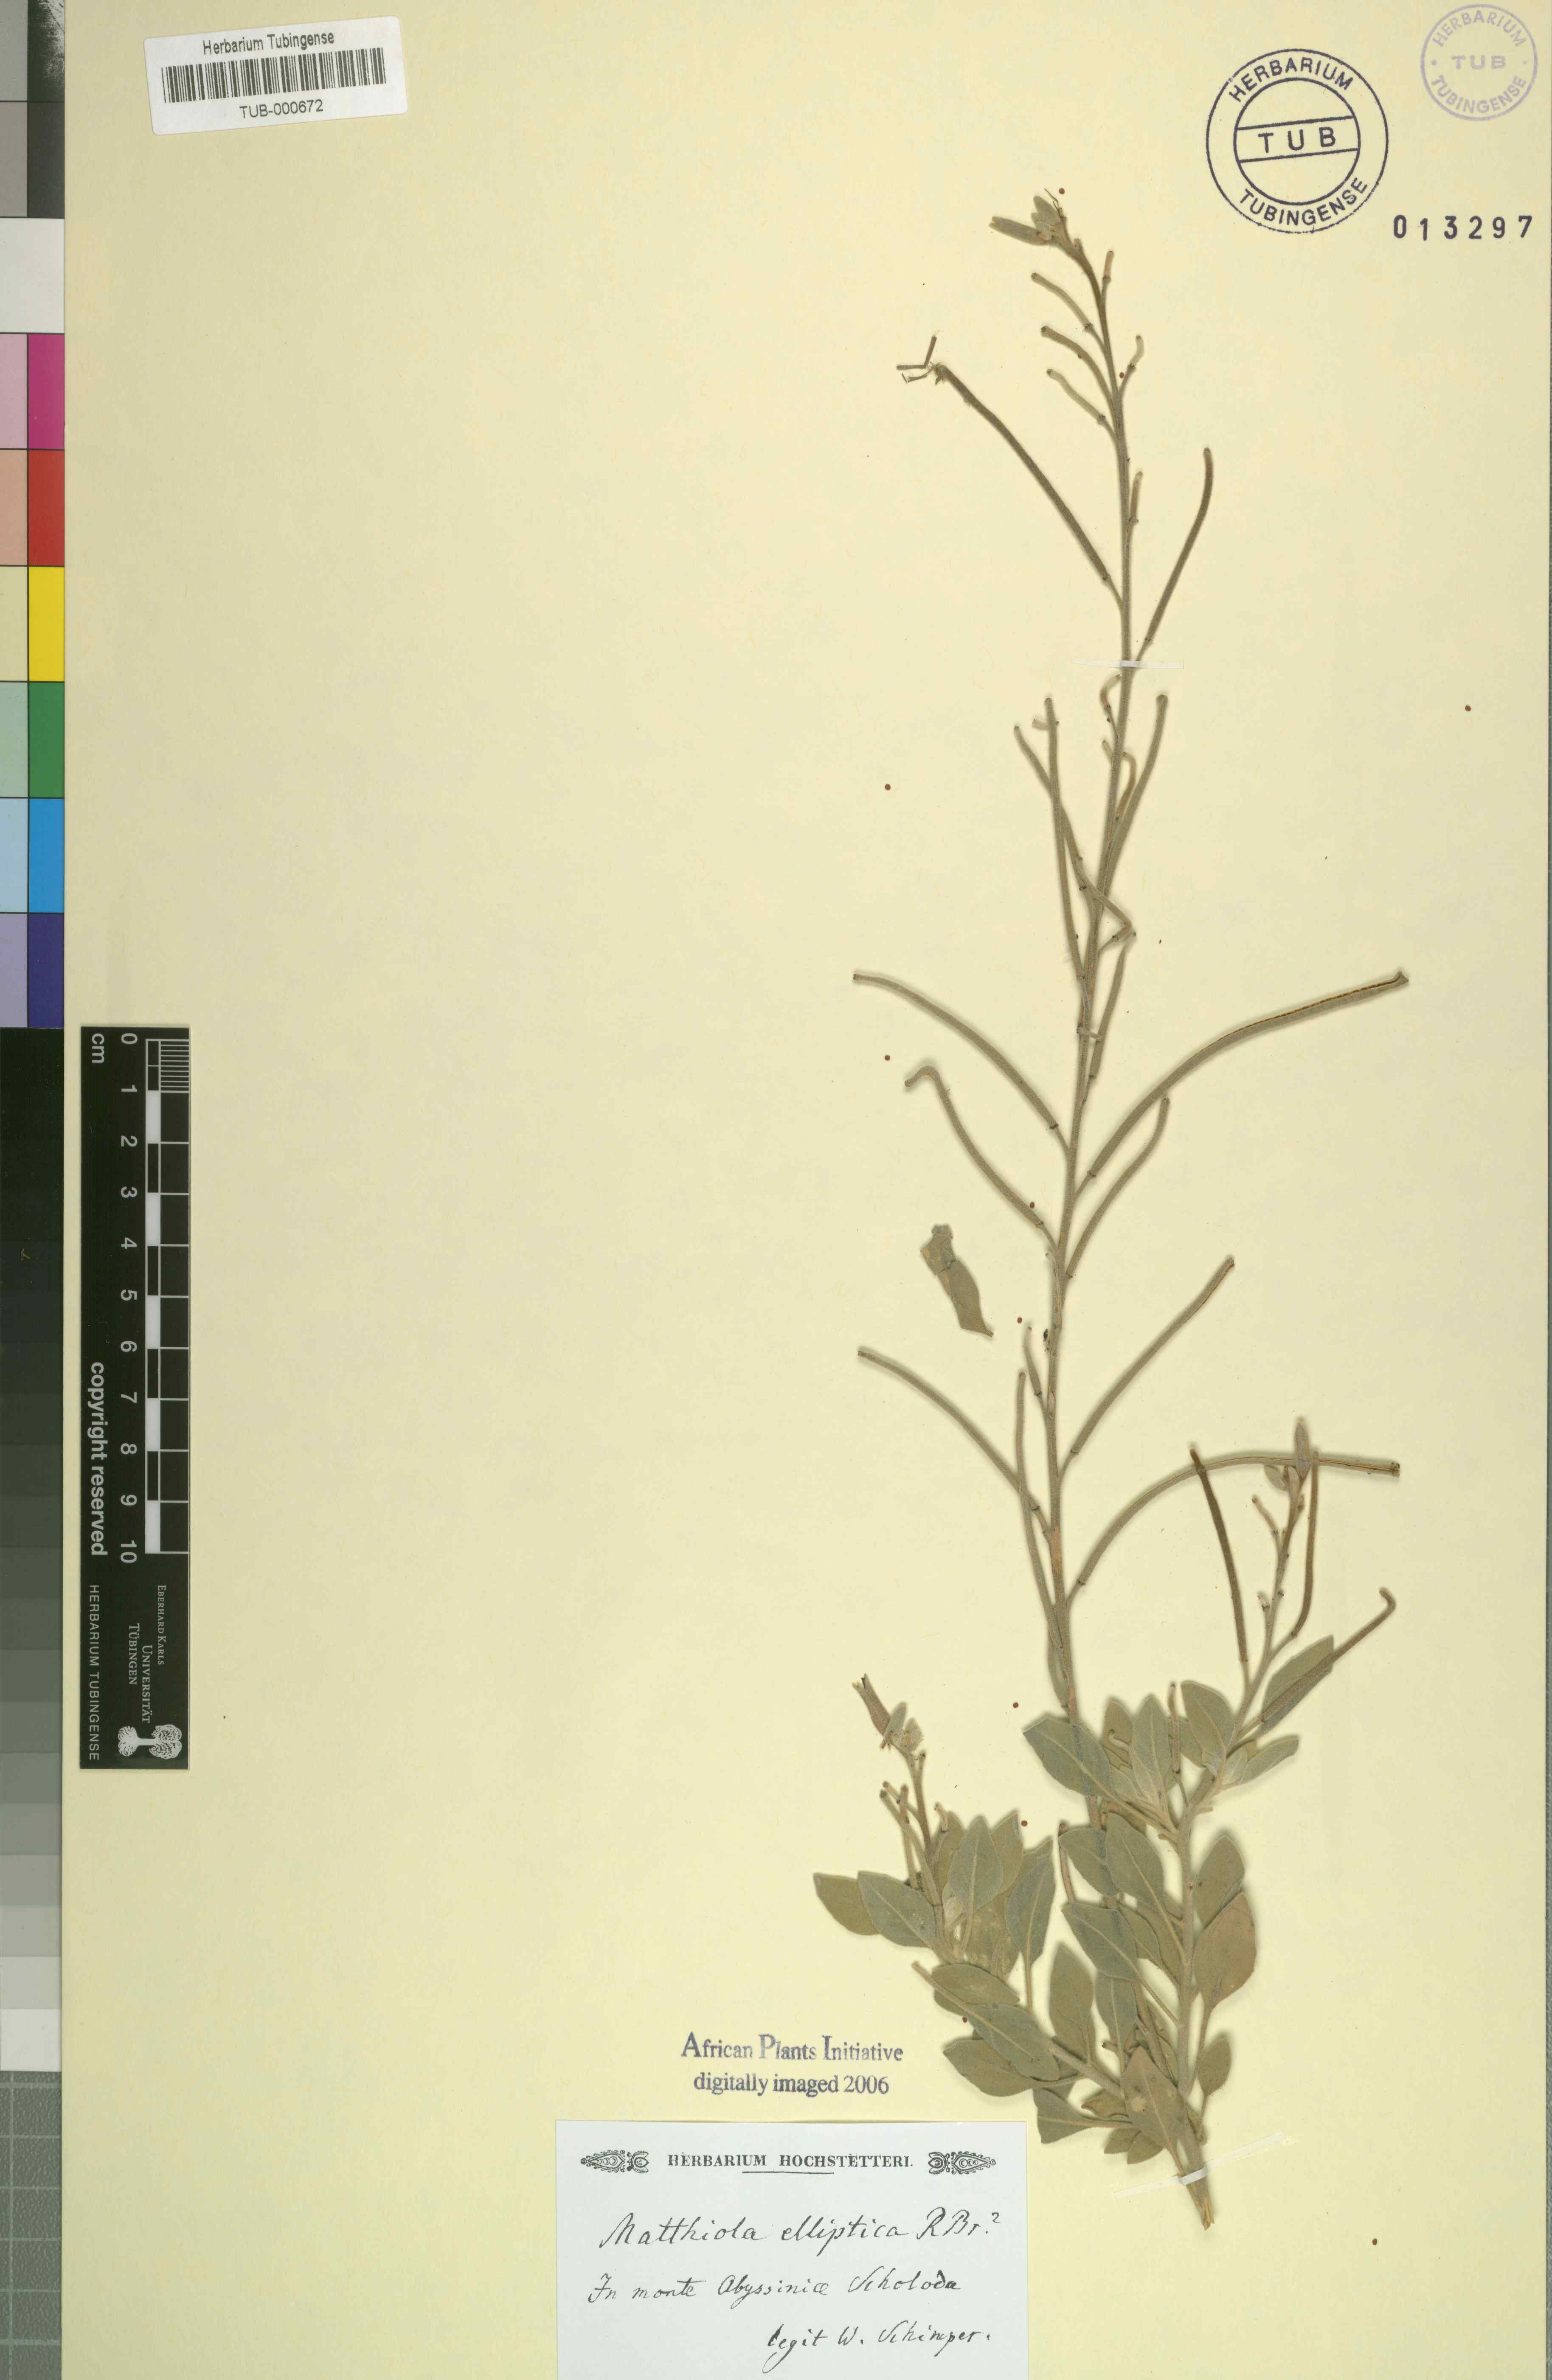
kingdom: Plantae
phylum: Tracheophyta
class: Magnoliopsida
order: Brassicales
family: Brassicaceae
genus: Diceratella
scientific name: Diceratella elliptica
